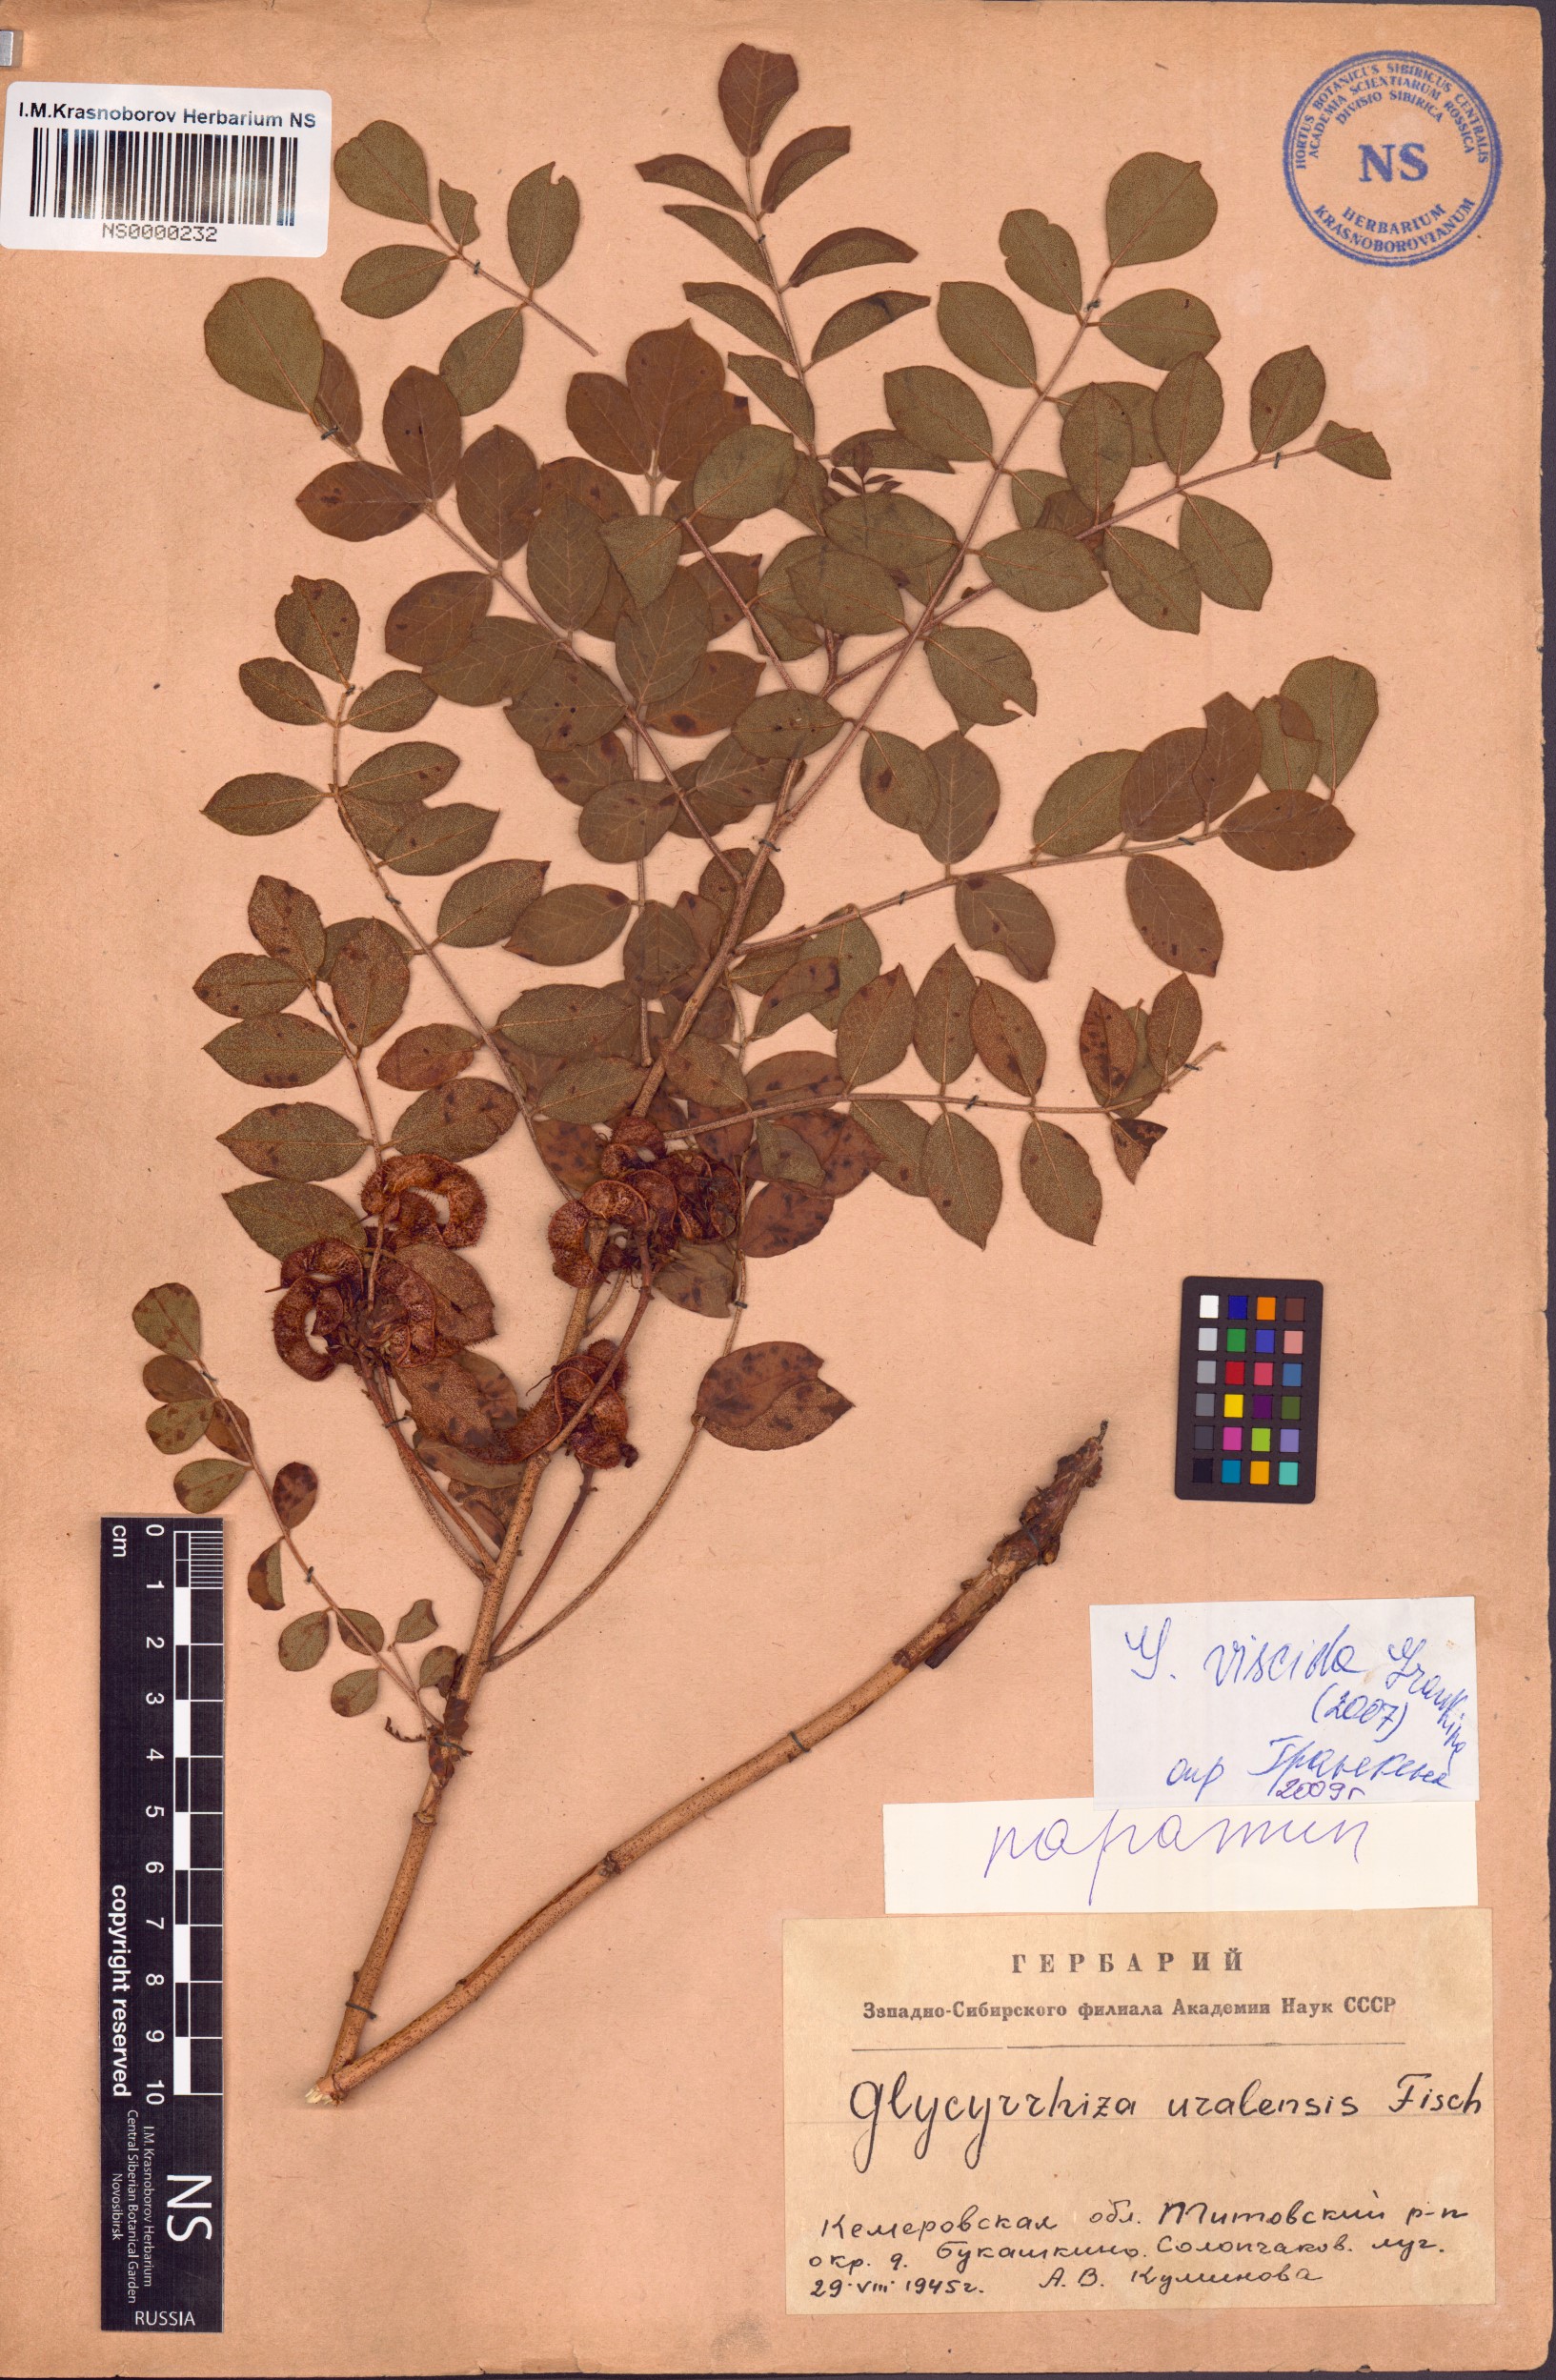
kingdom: Plantae
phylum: Tracheophyta
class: Magnoliopsida
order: Fabales
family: Fabaceae
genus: Glycyrrhiza
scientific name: Glycyrrhiza uralensis
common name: Chinese licorice
